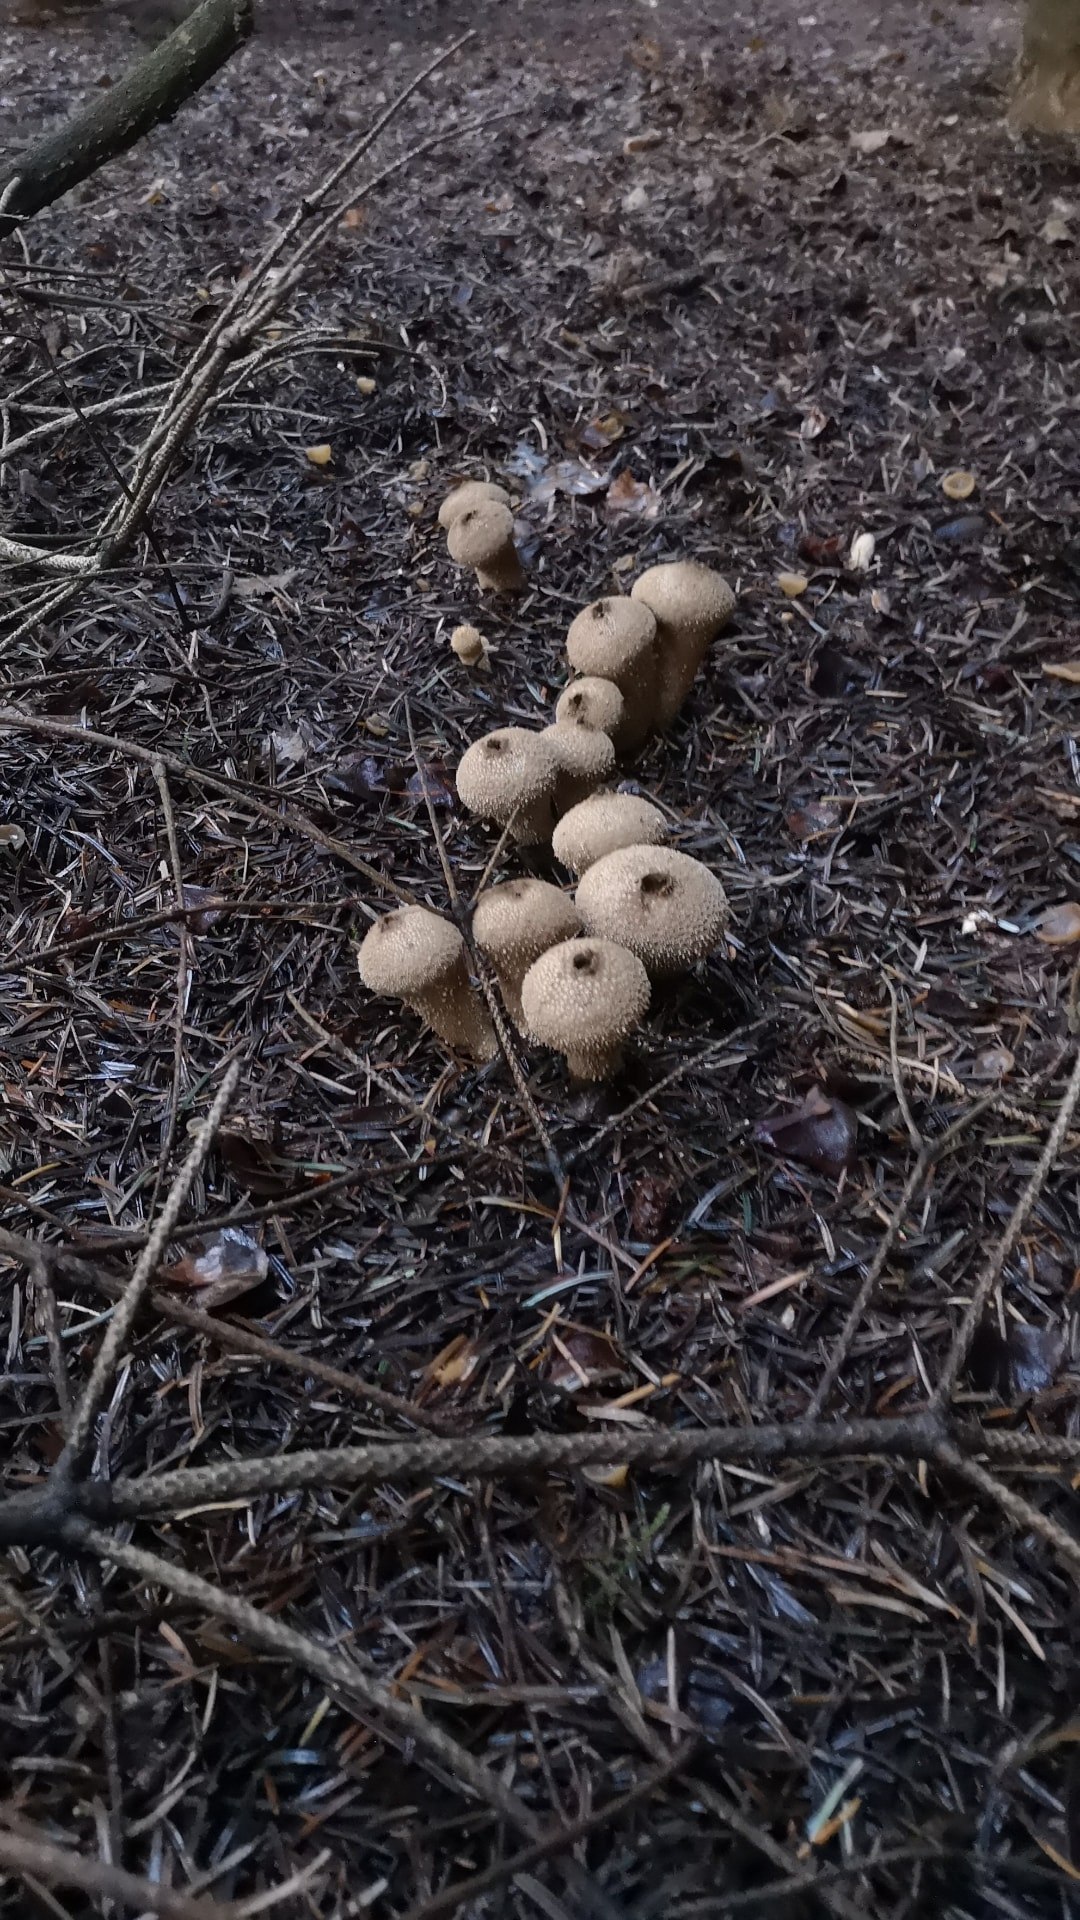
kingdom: Fungi
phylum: Basidiomycota
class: Agaricomycetes
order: Agaricales
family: Lycoperdaceae
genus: Lycoperdon
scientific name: Lycoperdon perlatum
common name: krystal-støvbold
